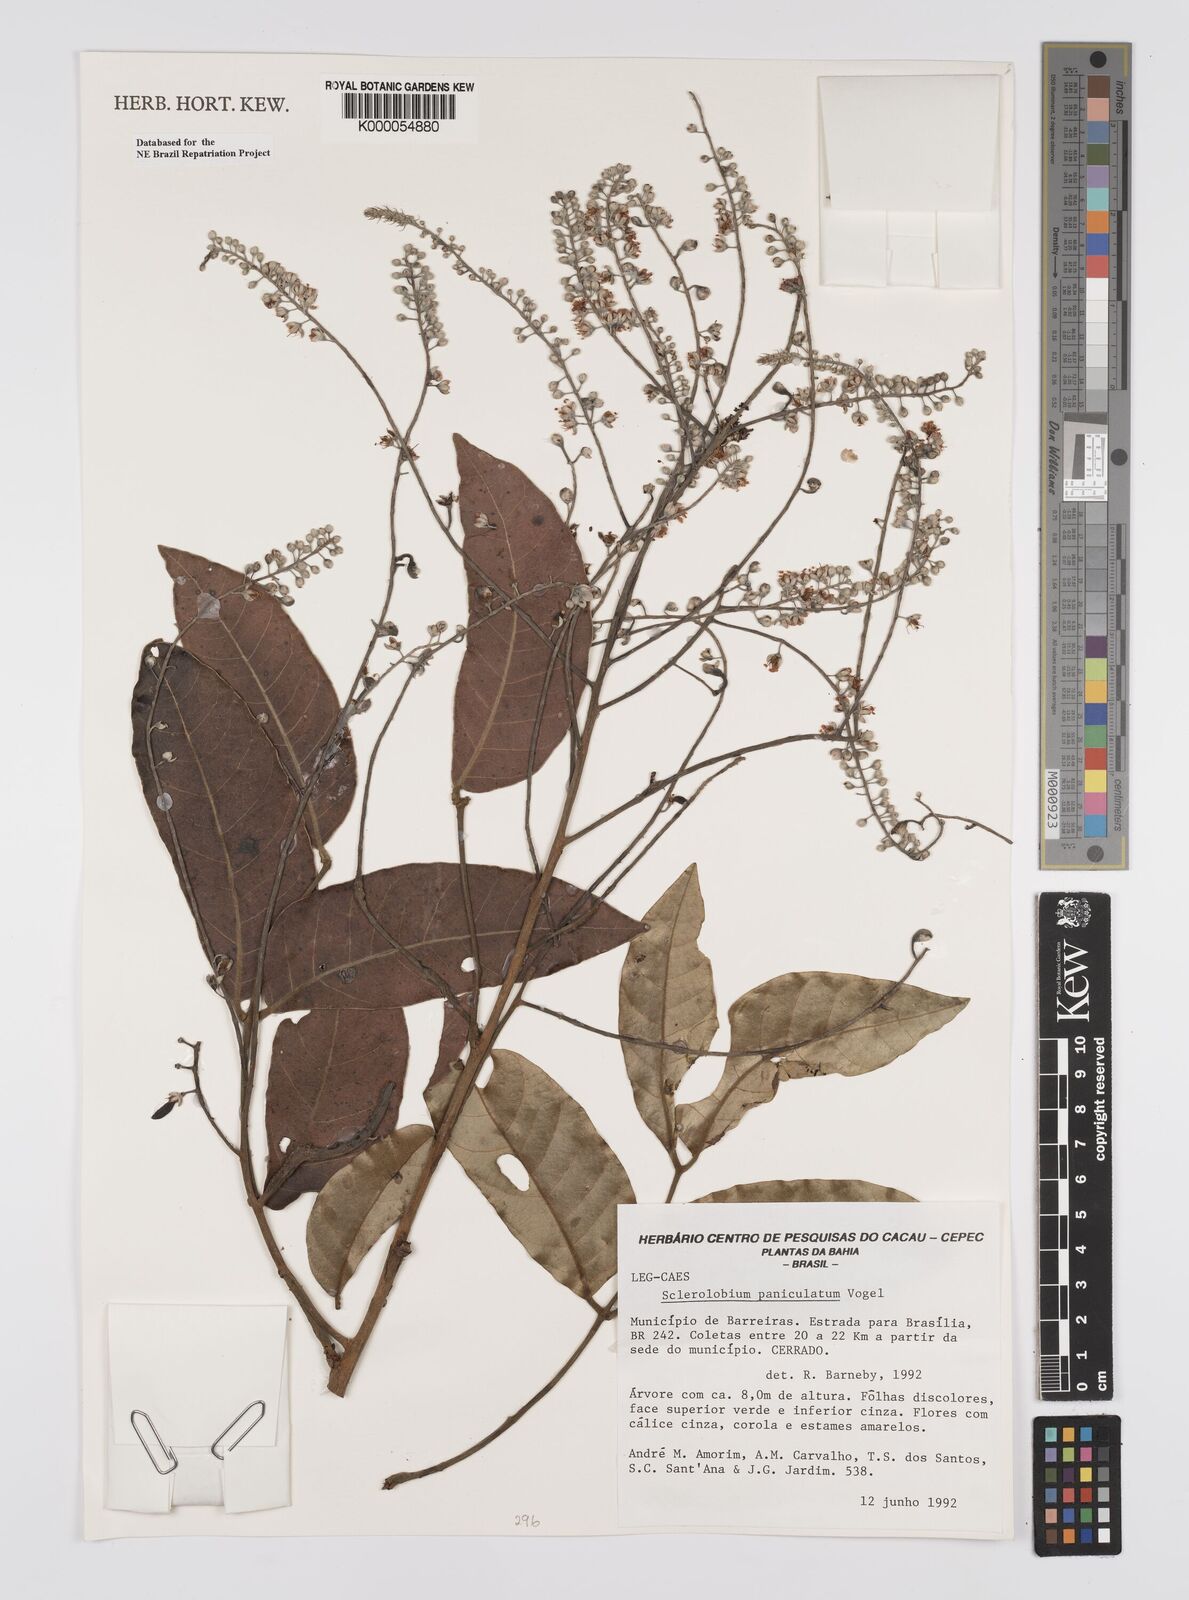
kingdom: Plantae
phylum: Tracheophyta
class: Magnoliopsida
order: Fabales
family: Fabaceae
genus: Tachigali
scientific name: Tachigali vulgaris
